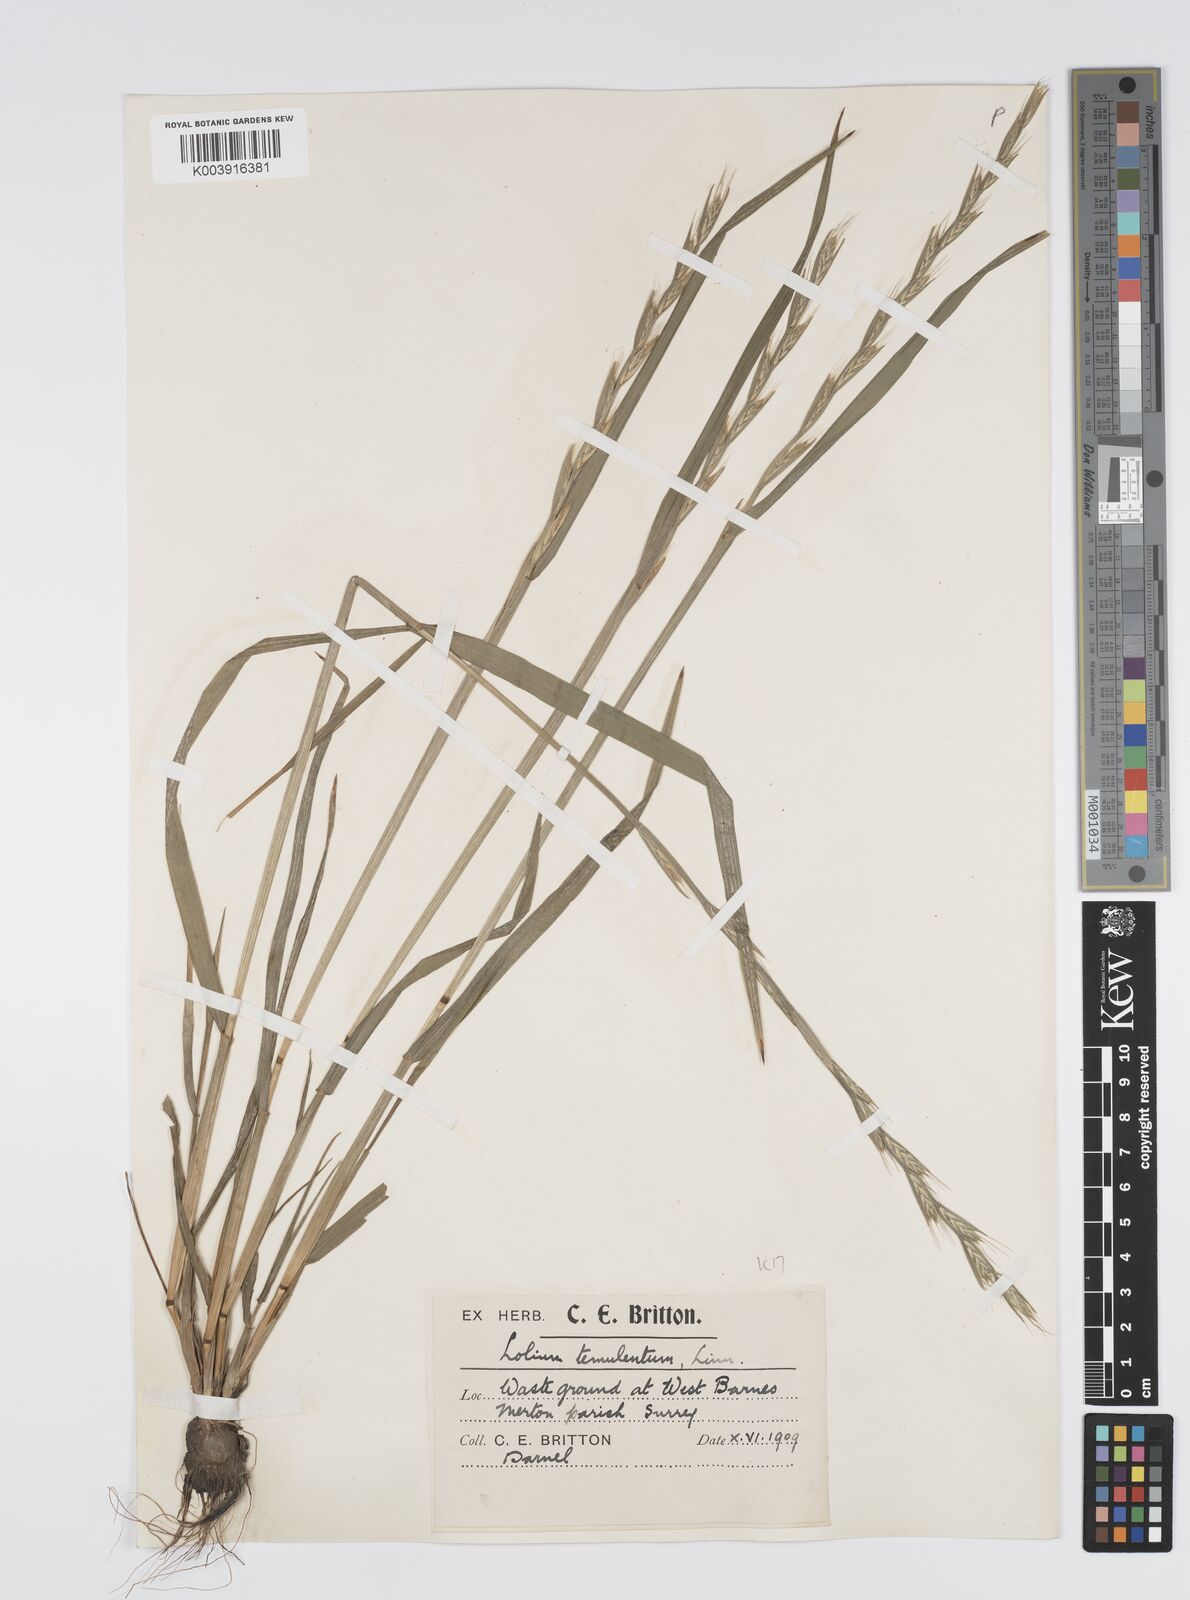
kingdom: Plantae
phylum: Tracheophyta
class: Liliopsida
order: Poales
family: Poaceae
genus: Lolium
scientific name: Lolium temulentum
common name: Darnel
